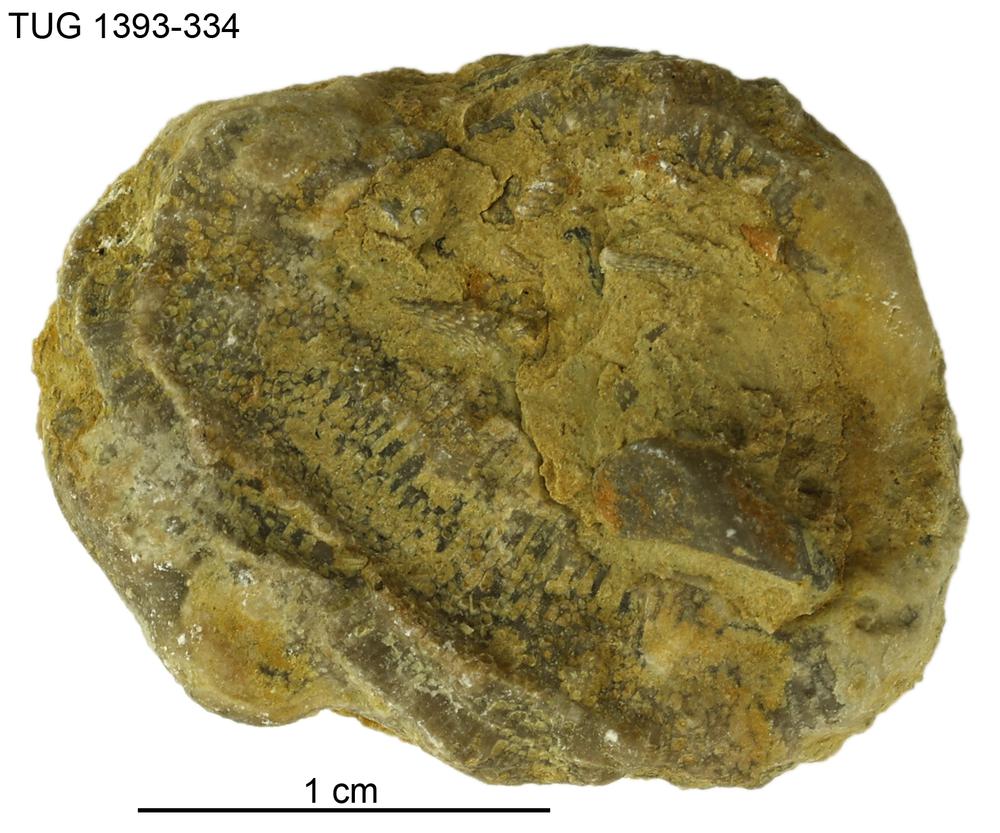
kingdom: Animalia
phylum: Bryozoa
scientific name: Bryozoa
